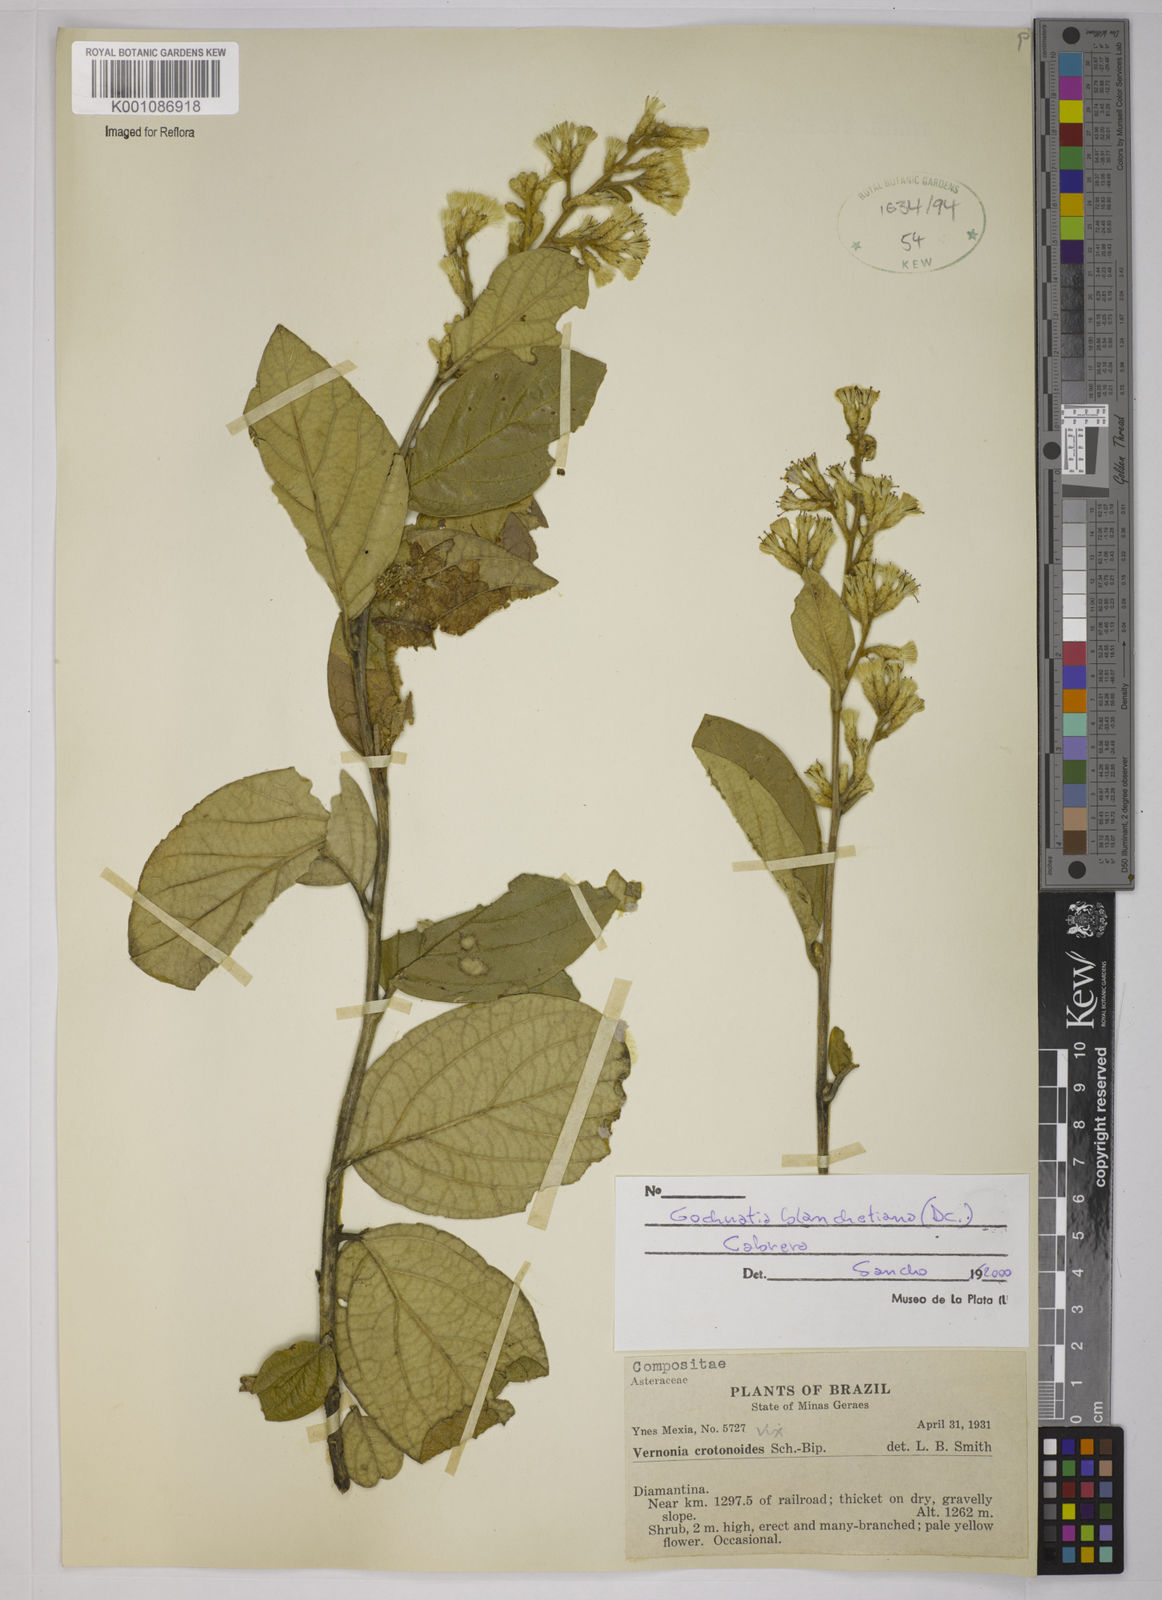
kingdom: Plantae
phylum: Tracheophyta
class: Magnoliopsida
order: Asterales
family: Asteraceae
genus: Moquiniastrum
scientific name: Moquiniastrum blanchetianum
